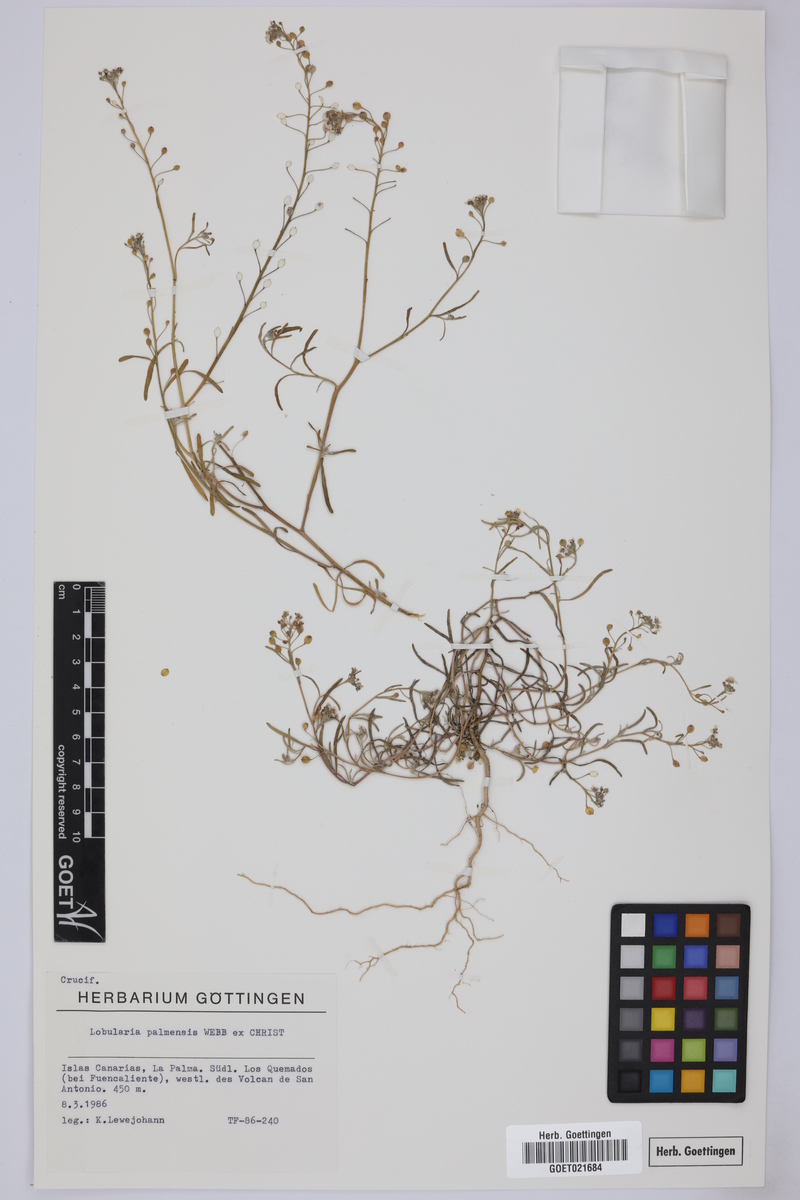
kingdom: Plantae
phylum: Tracheophyta
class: Magnoliopsida
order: Brassicales
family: Brassicaceae
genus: Lobularia
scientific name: Lobularia canariensis
